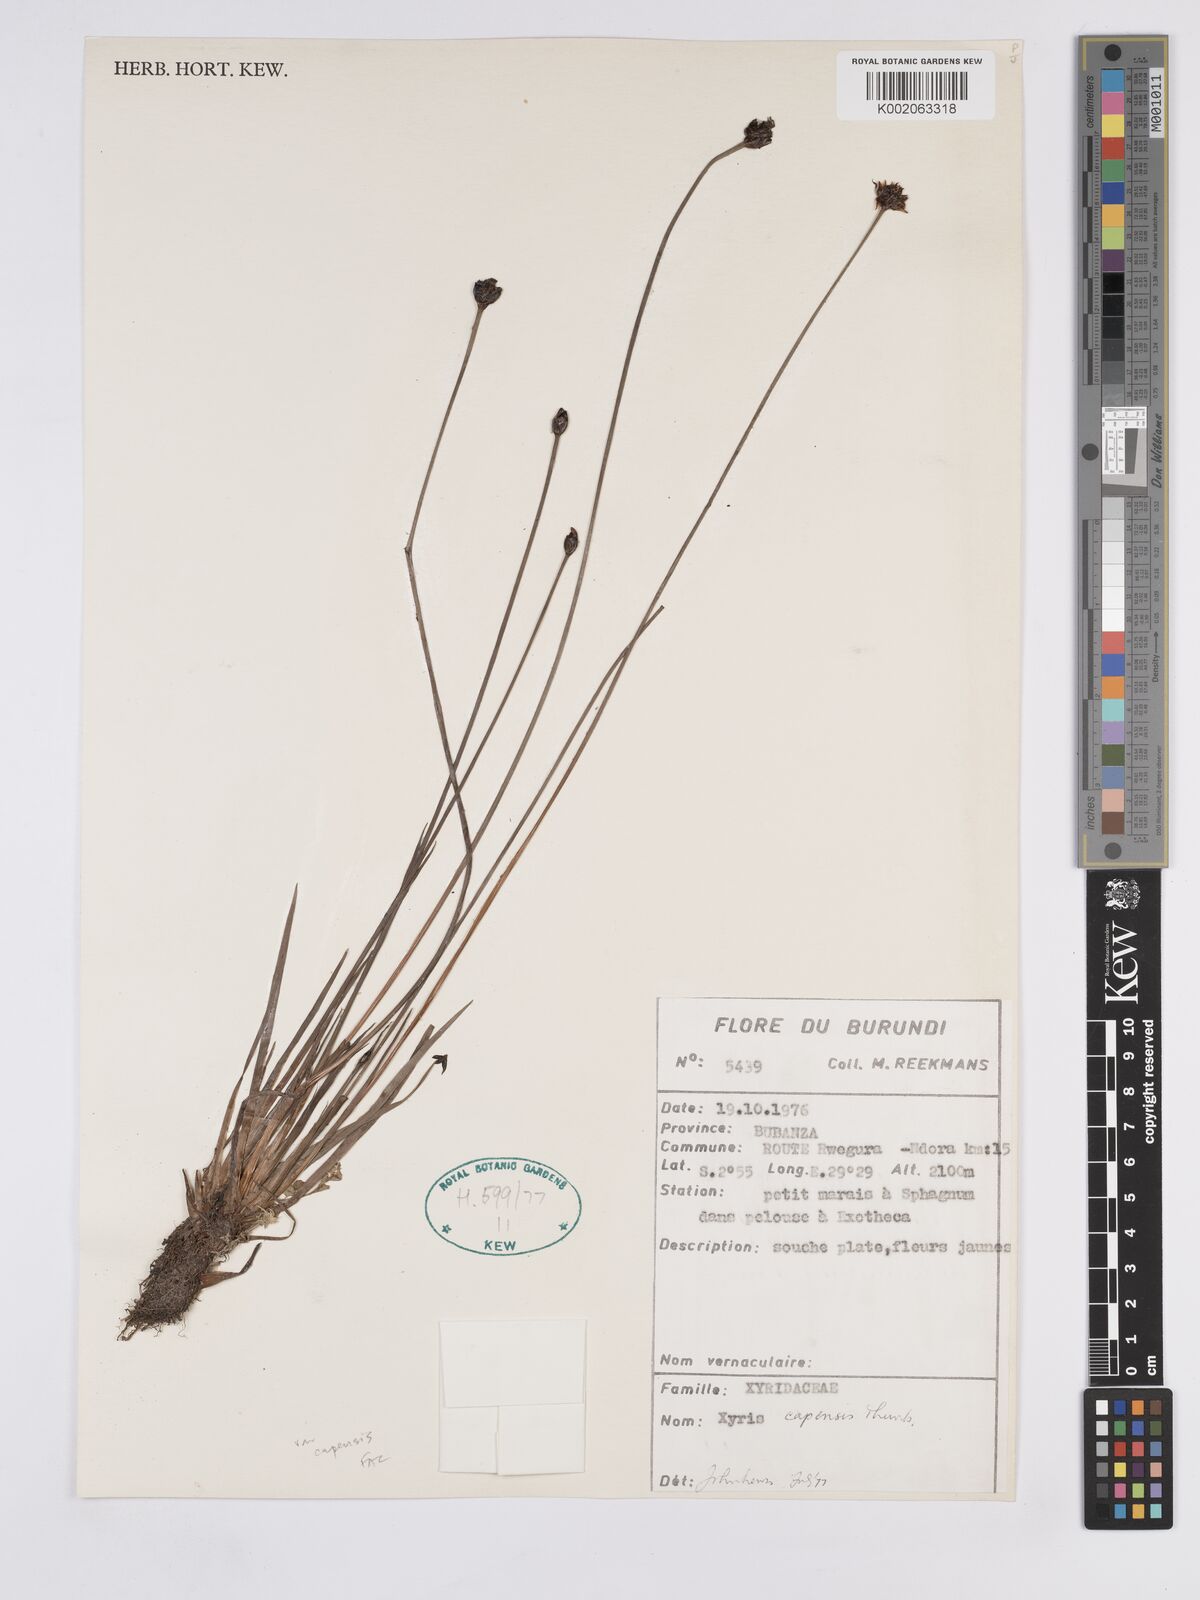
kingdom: Plantae
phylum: Tracheophyta
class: Liliopsida
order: Poales
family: Xyridaceae
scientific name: Xyridaceae
